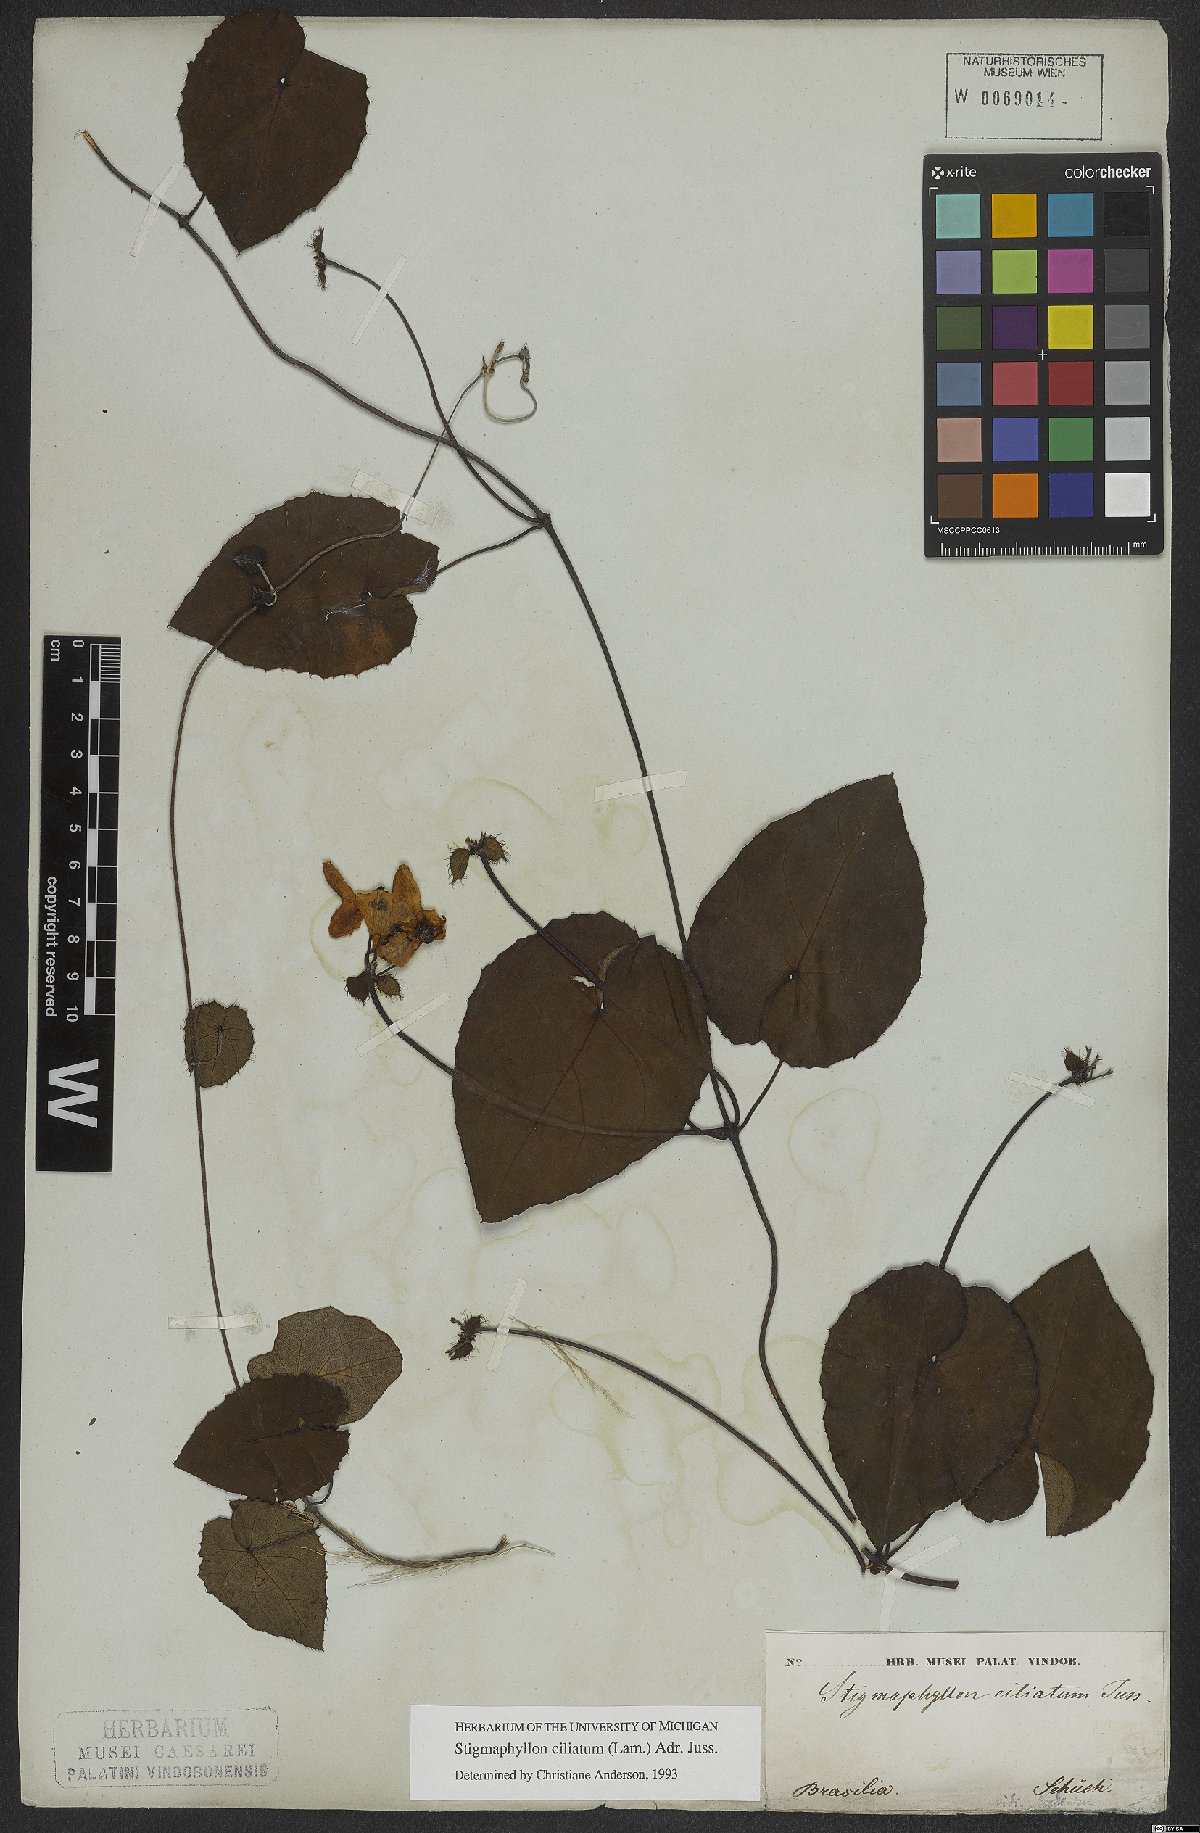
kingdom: Plantae
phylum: Tracheophyta
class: Magnoliopsida
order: Malpighiales
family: Malpighiaceae
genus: Stigmaphyllon
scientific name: Stigmaphyllon ciliatum
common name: Amazonvine
